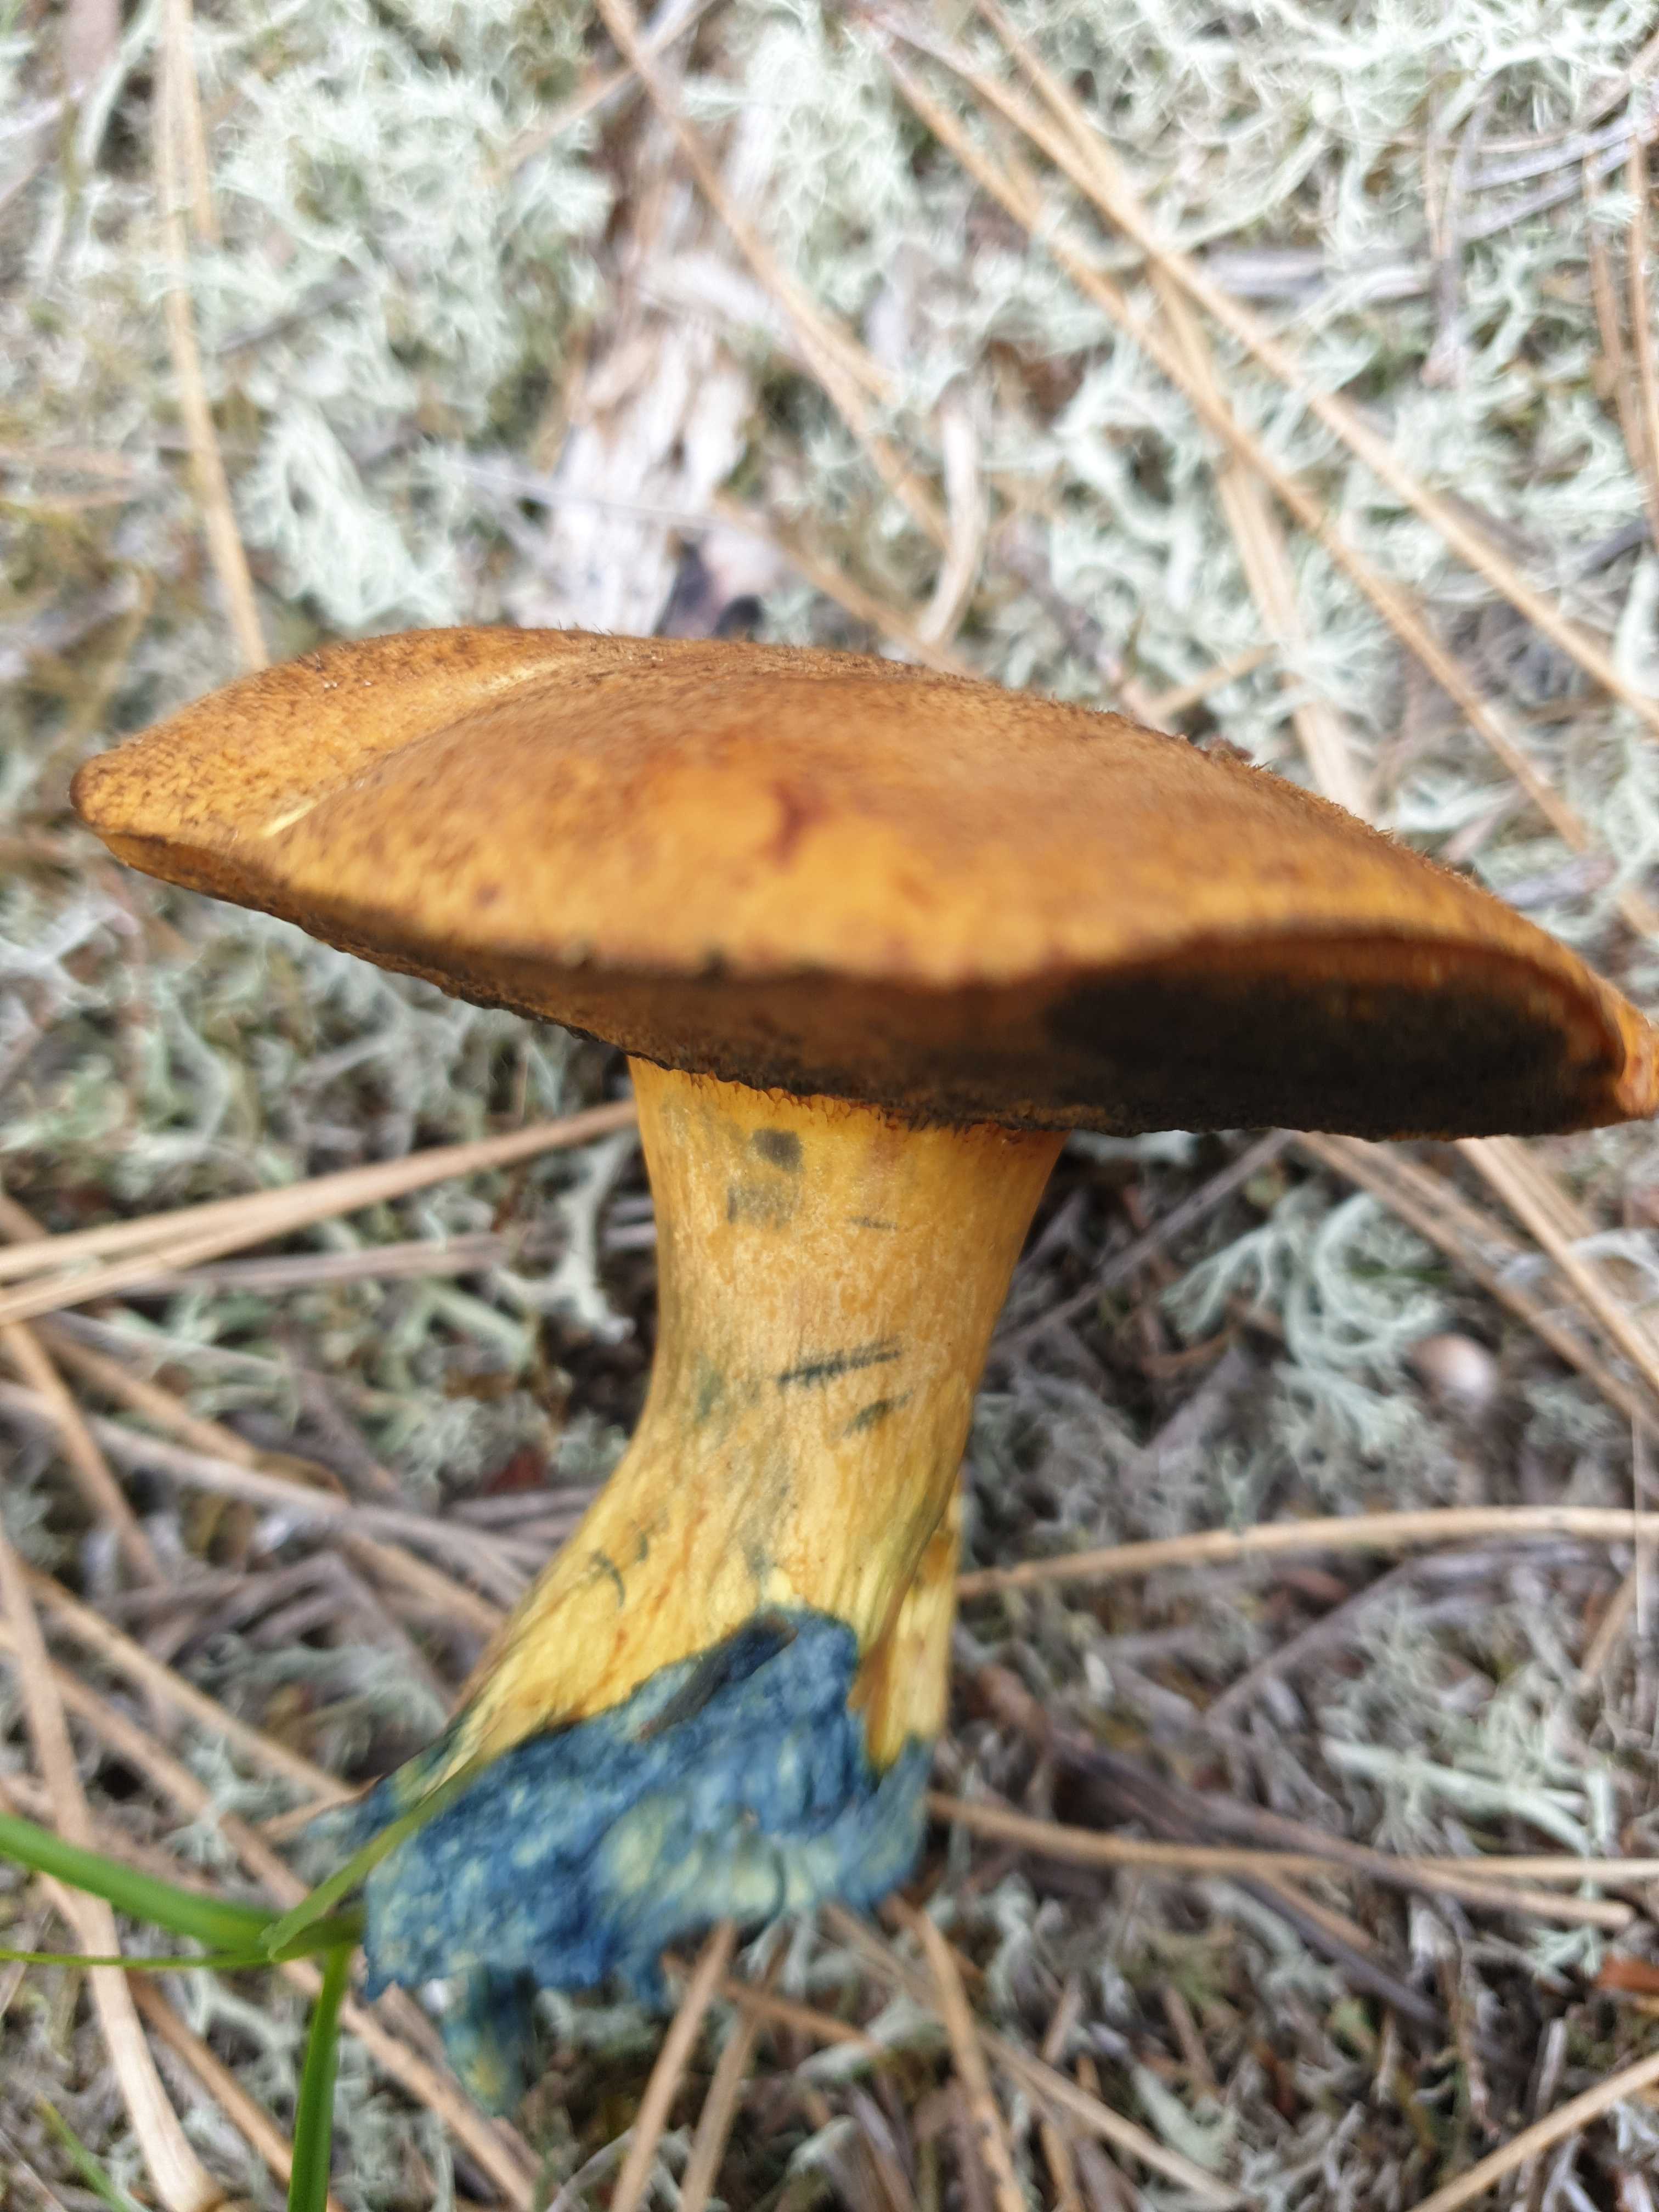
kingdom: Fungi
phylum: Basidiomycota
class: Agaricomycetes
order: Boletales
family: Suillaceae
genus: Suillus
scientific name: Suillus variegatus
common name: broget slimrørhat
